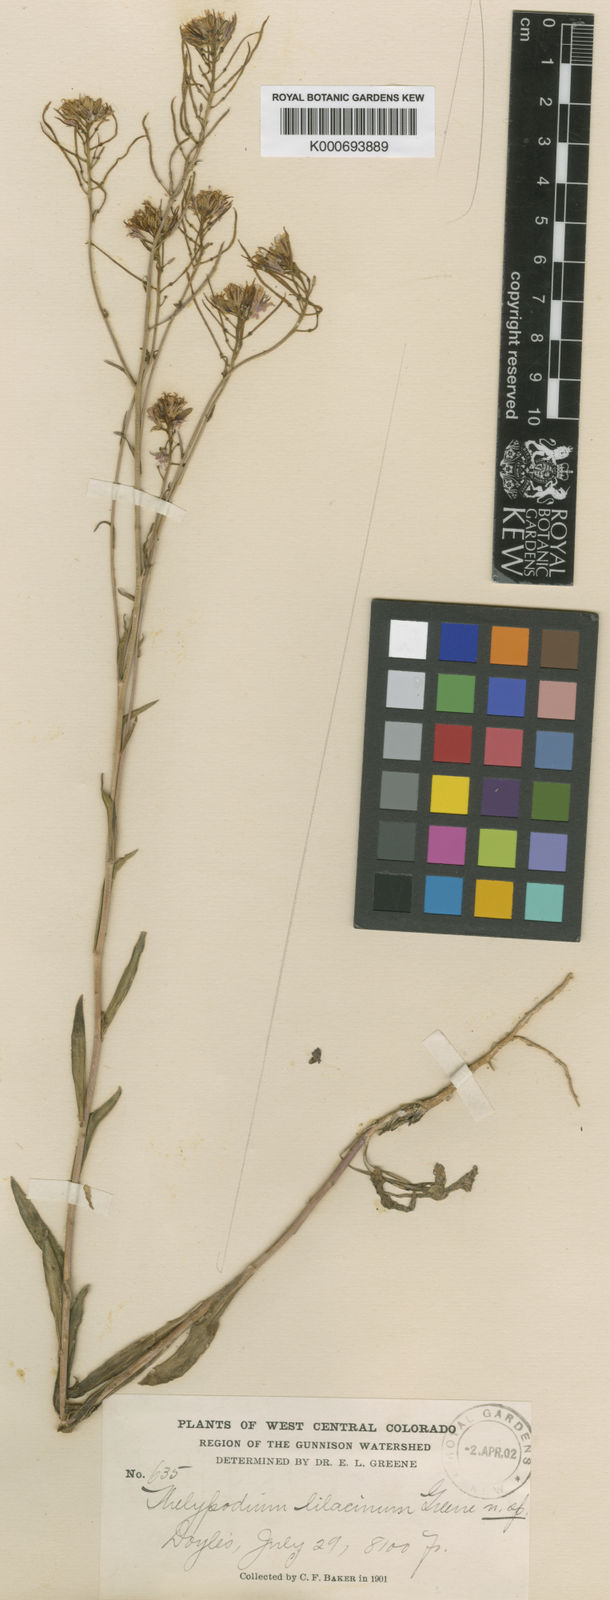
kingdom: Plantae
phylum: Tracheophyta
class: Magnoliopsida
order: Brassicales
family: Brassicaceae
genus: Thelypodium
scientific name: Thelypodium integrifolium
